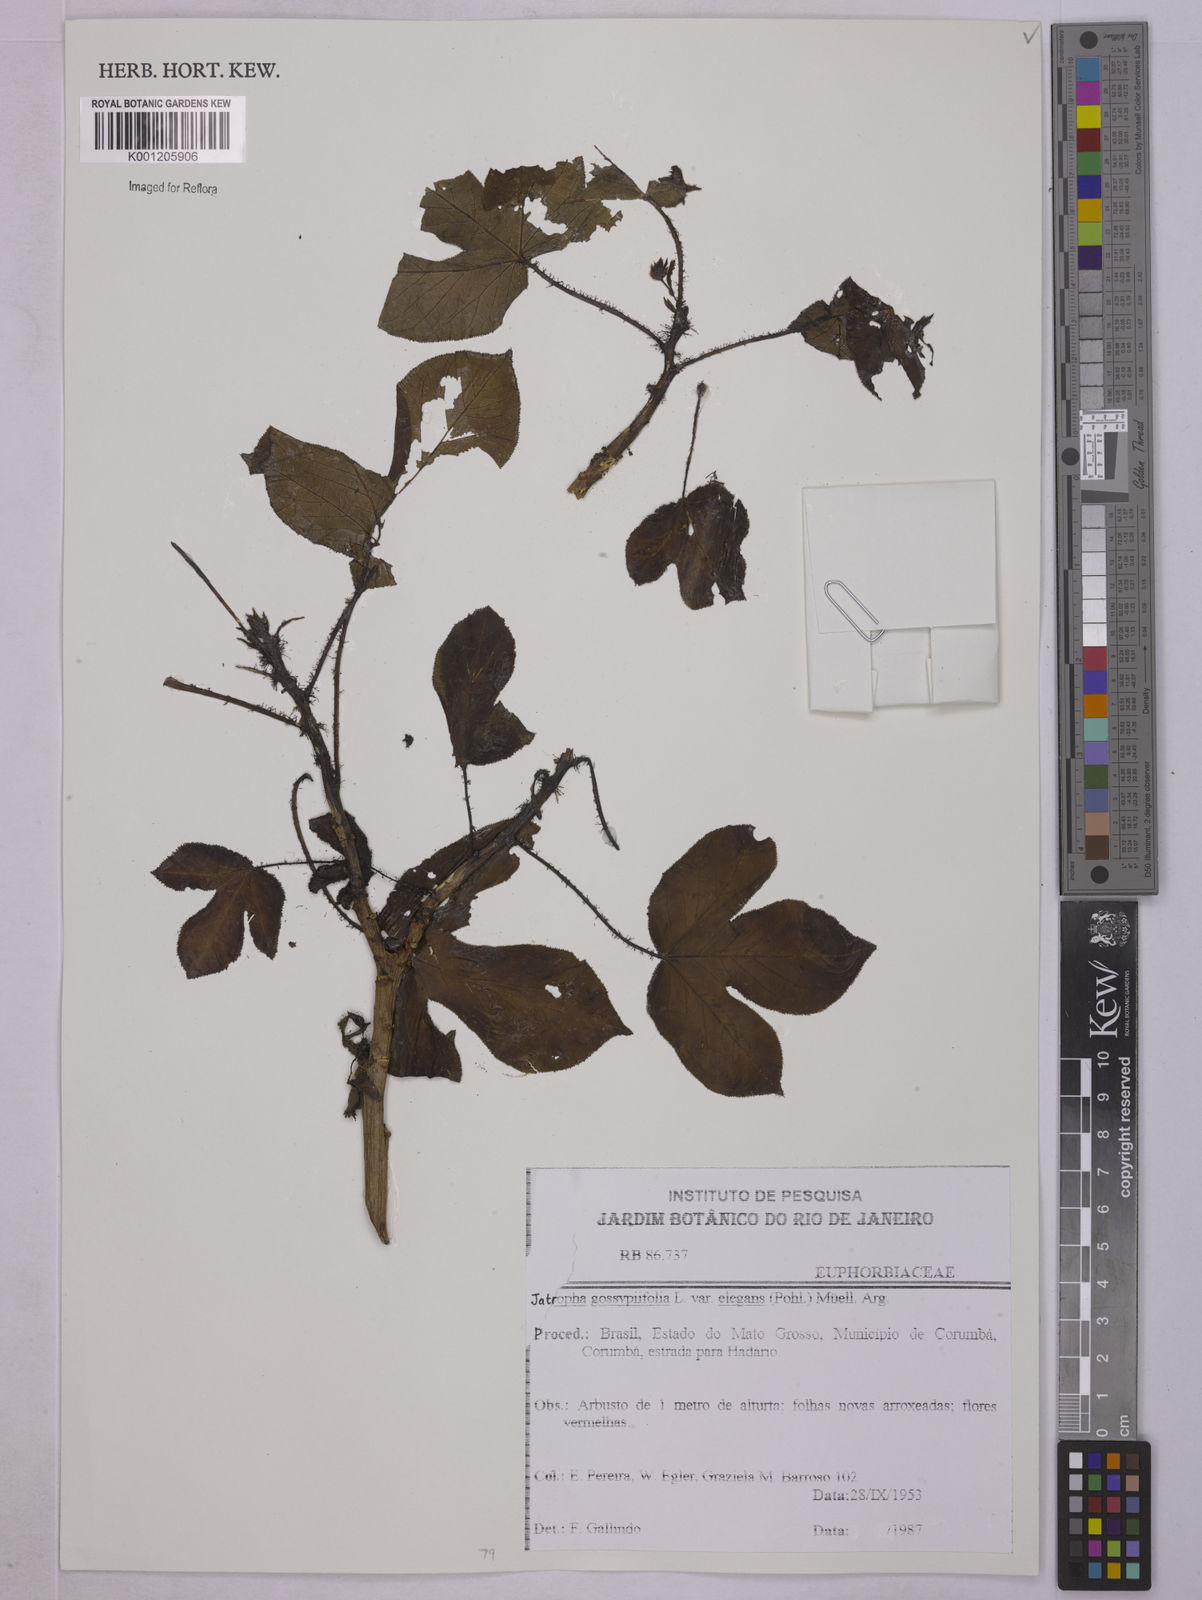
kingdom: Plantae
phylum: Tracheophyta
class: Magnoliopsida
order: Malpighiales
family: Euphorbiaceae
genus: Jatropha
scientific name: Jatropha gossypiifolia
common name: Bellyache bush
